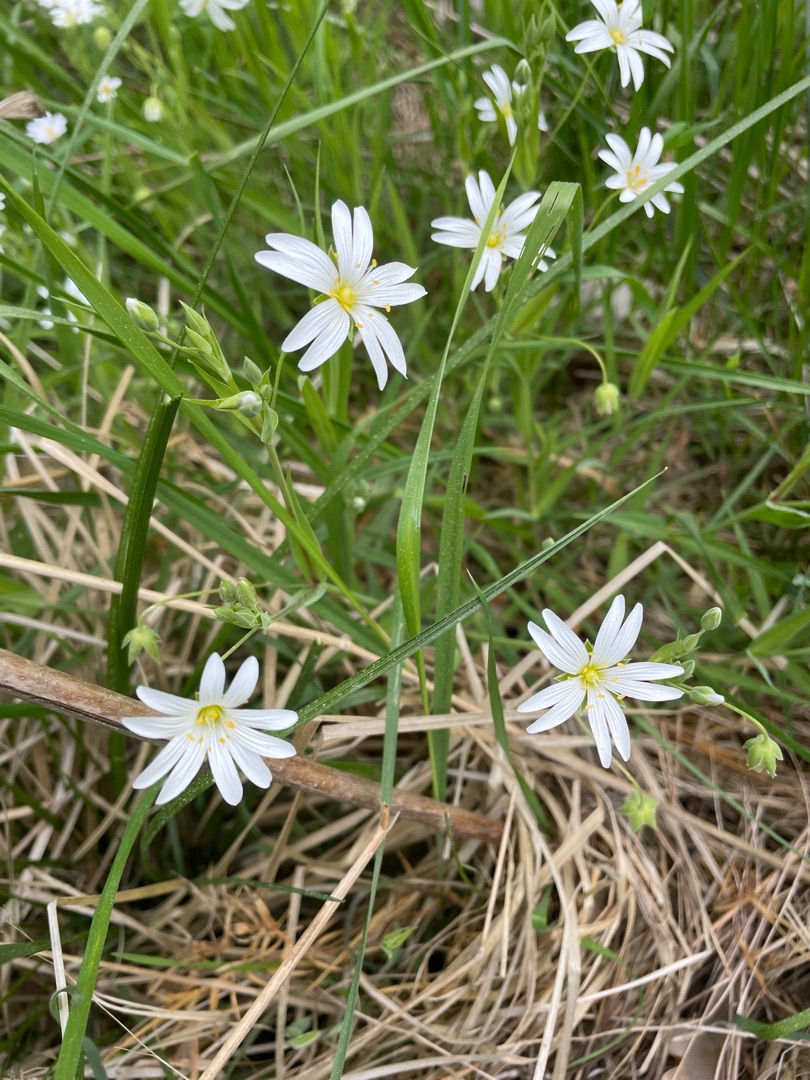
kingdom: Plantae
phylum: Tracheophyta
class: Magnoliopsida
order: Caryophyllales
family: Caryophyllaceae
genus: Rabelera
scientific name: Rabelera holostea
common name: Stor fladstjerne
